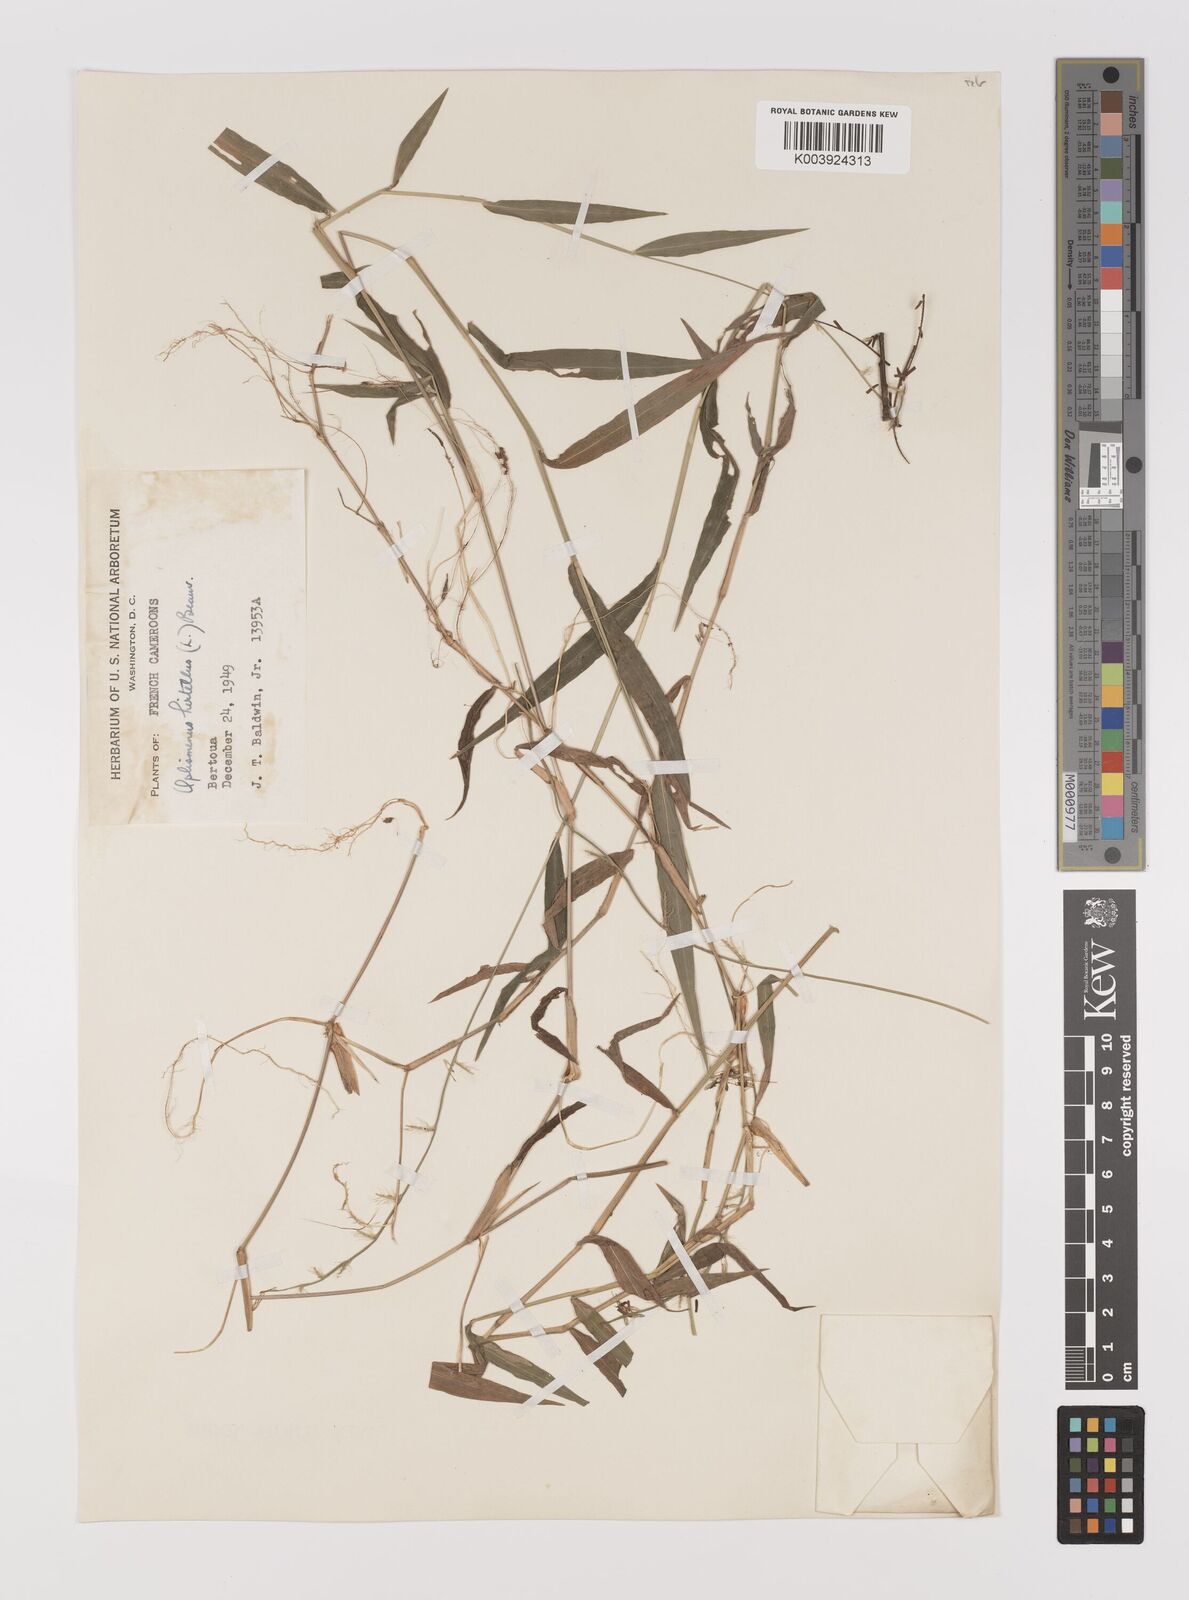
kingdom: Plantae
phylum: Tracheophyta
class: Liliopsida
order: Poales
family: Poaceae
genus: Oplismenus
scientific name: Oplismenus hirtellus
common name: Basketgrass
